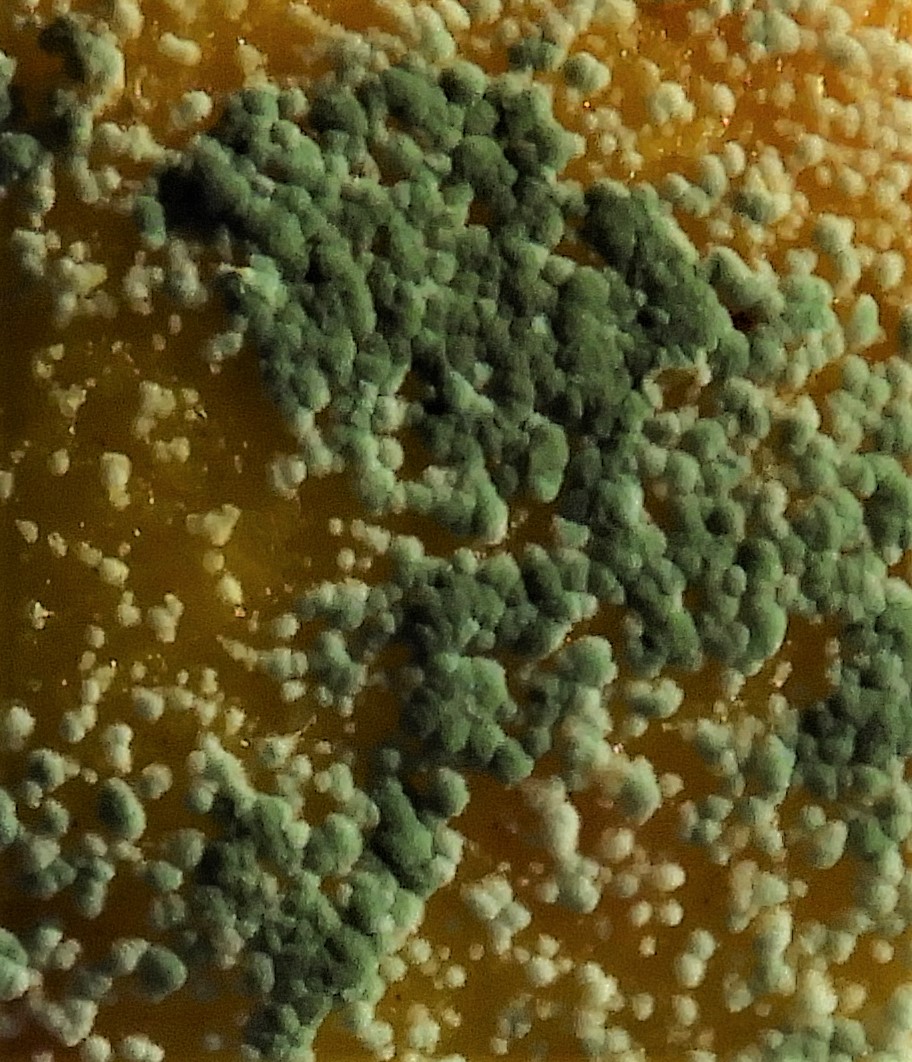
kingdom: Fungi
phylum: Ascomycota
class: Eurotiomycetes
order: Eurotiales
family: Aspergillaceae
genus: Penicillium
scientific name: Penicillium italicum
